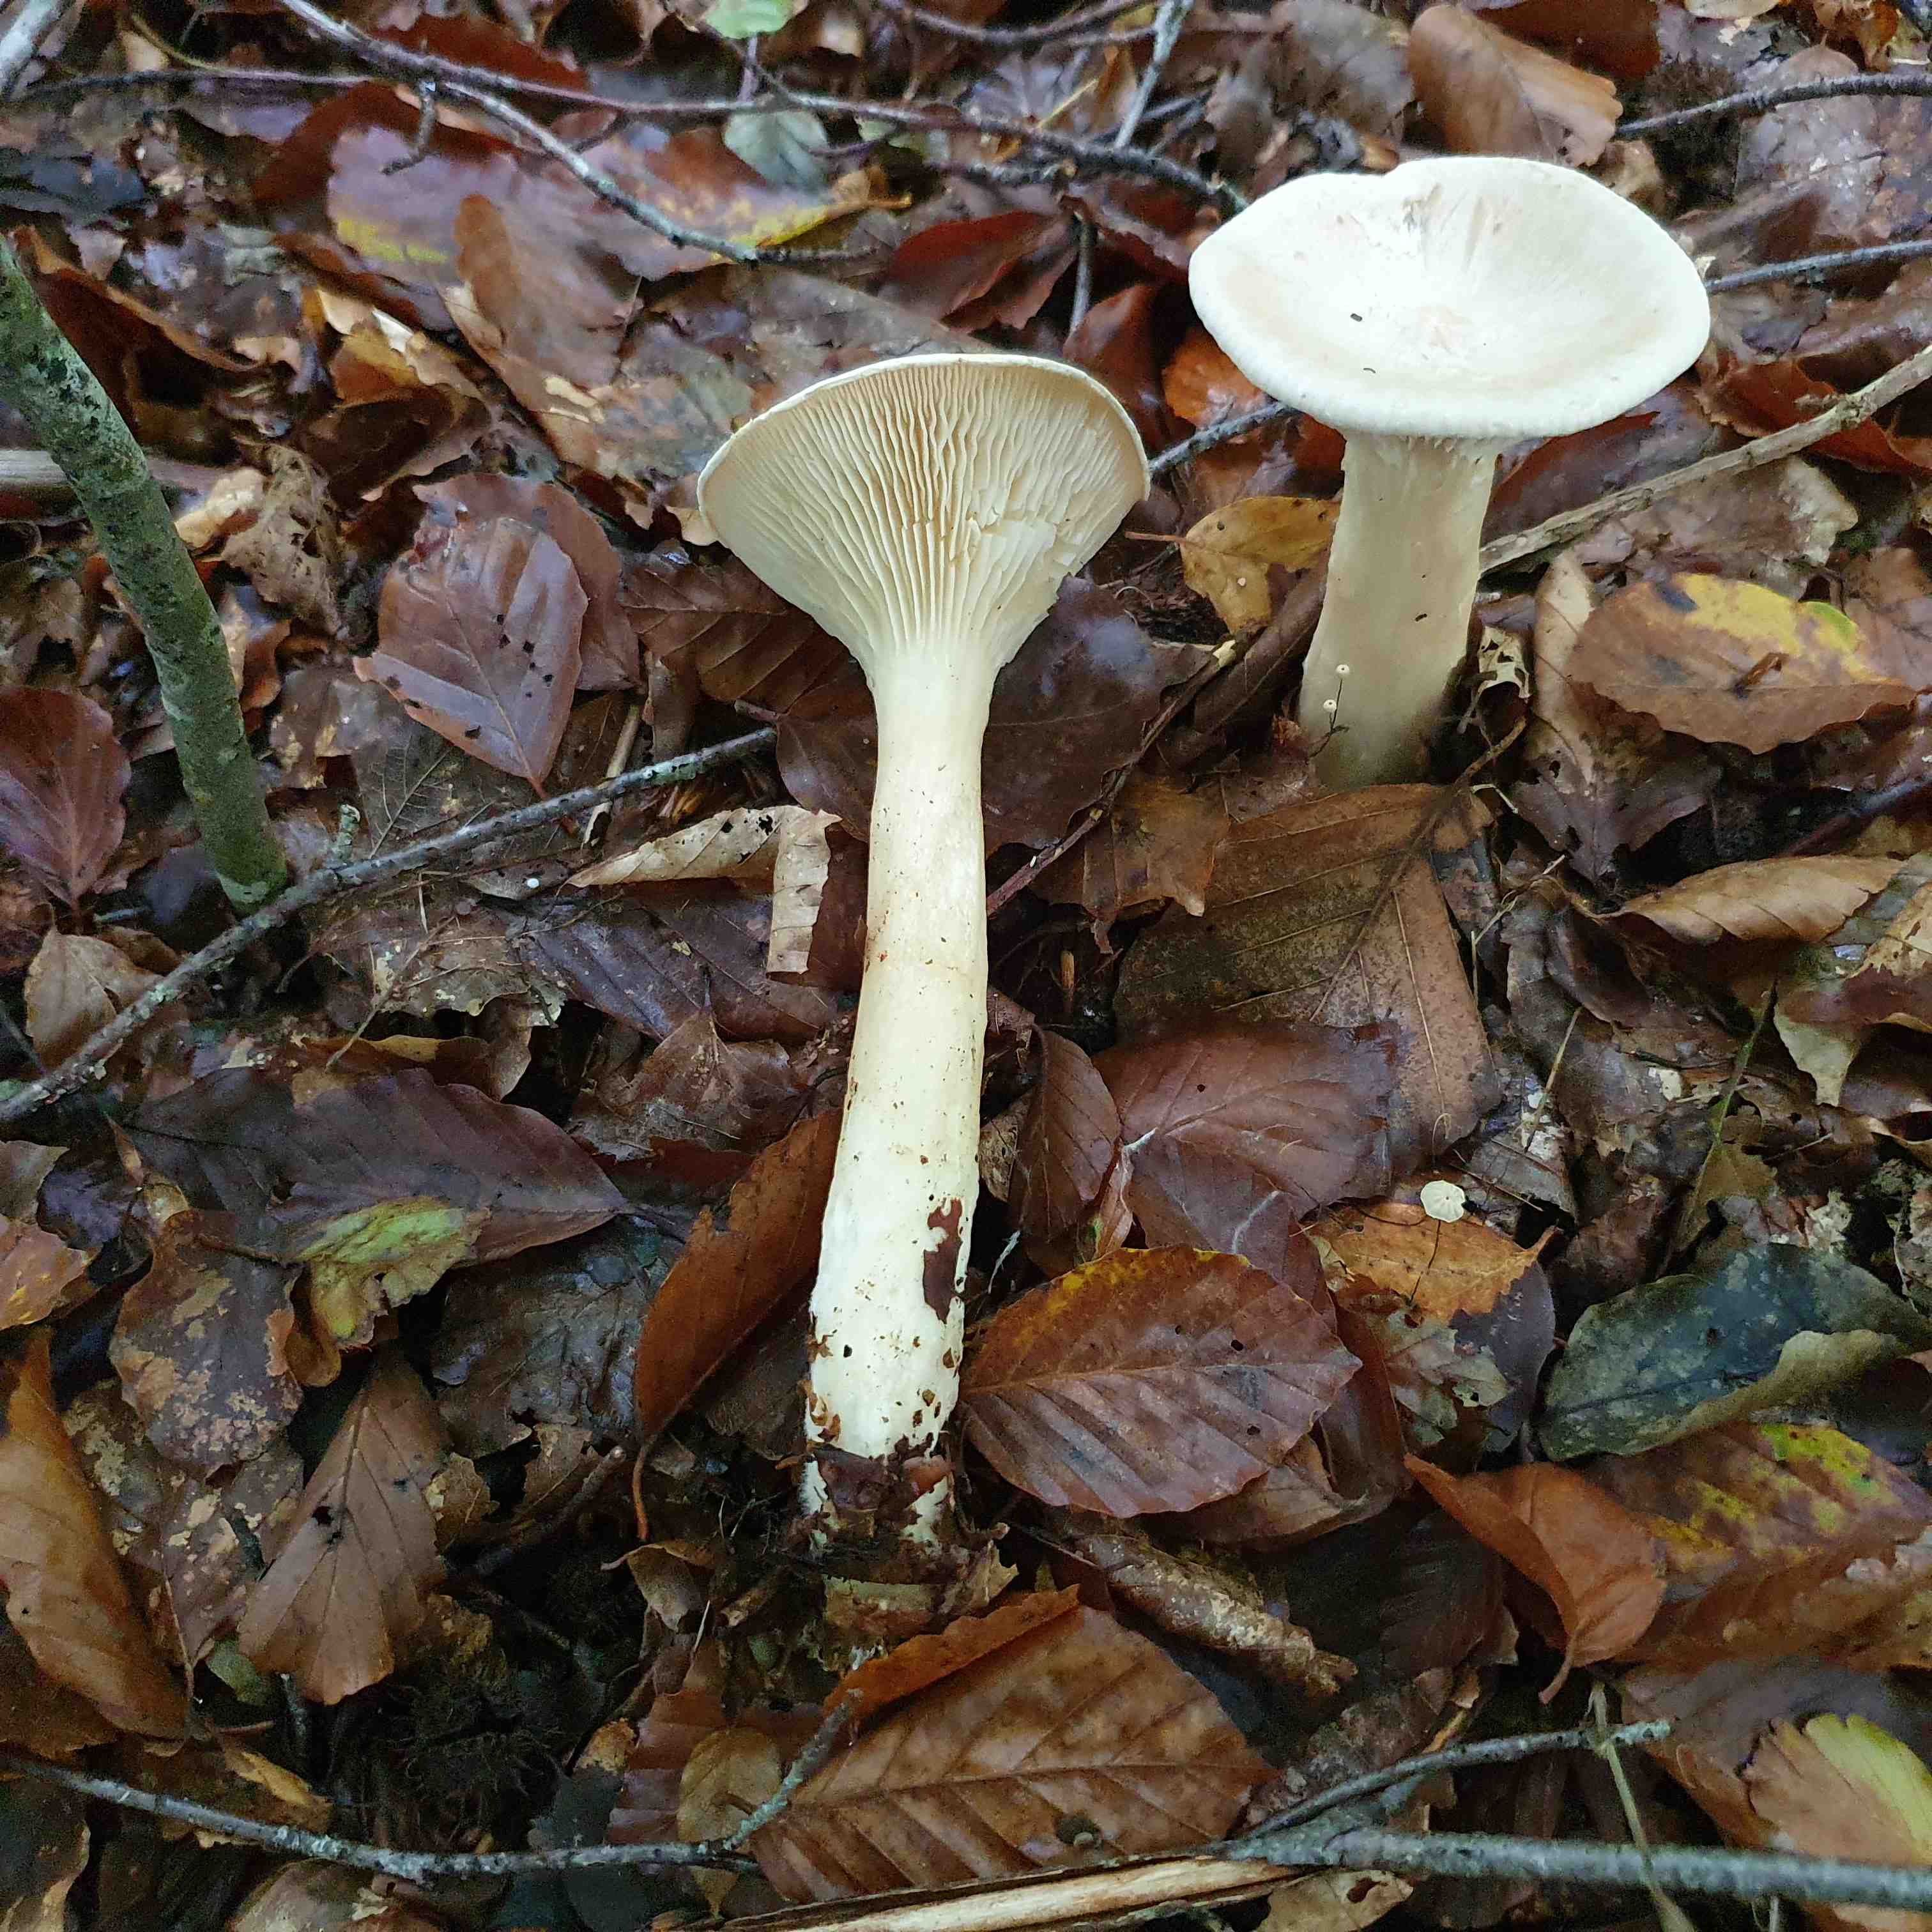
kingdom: Fungi
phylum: Basidiomycota
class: Agaricomycetes
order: Agaricales
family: Tricholomataceae
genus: Infundibulicybe
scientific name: Infundibulicybe geotropa
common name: stor tragthat
